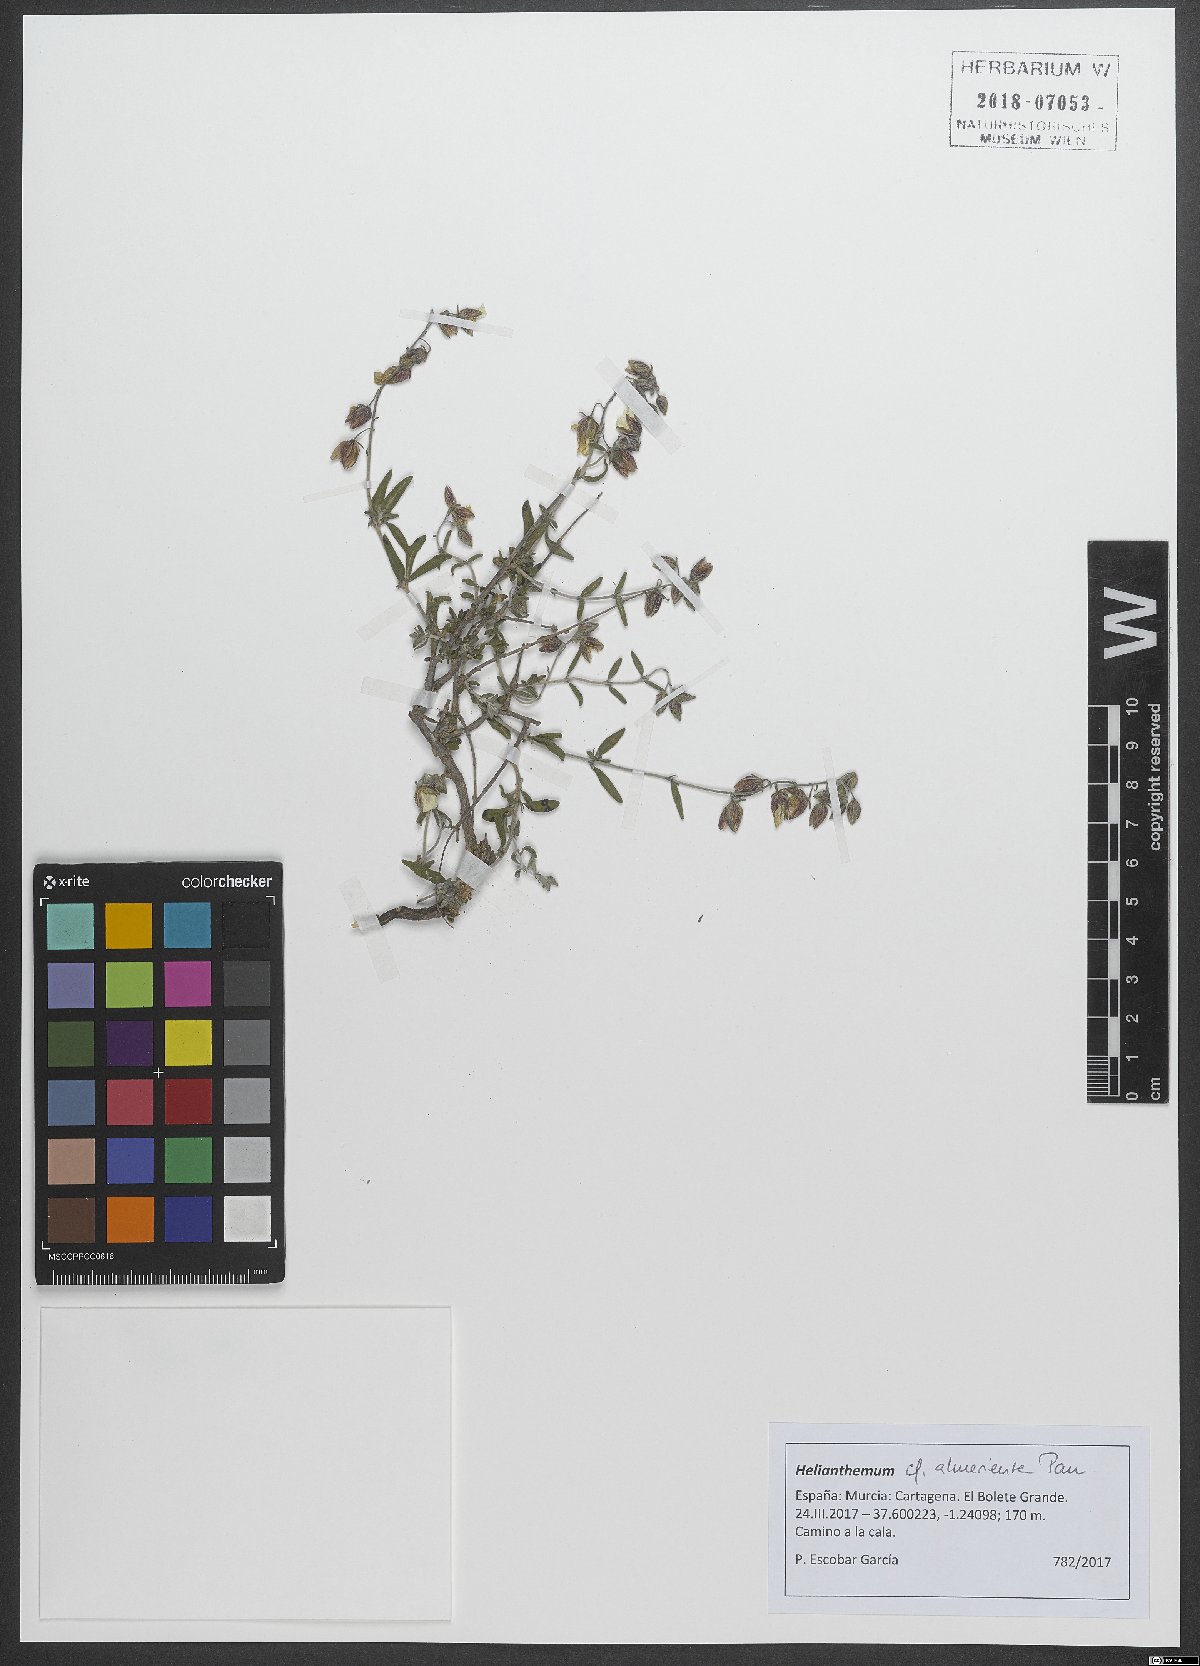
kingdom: Plantae
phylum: Tracheophyta
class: Magnoliopsida
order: Malvales
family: Cistaceae
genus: Helianthemum
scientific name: Helianthemum almeriense
